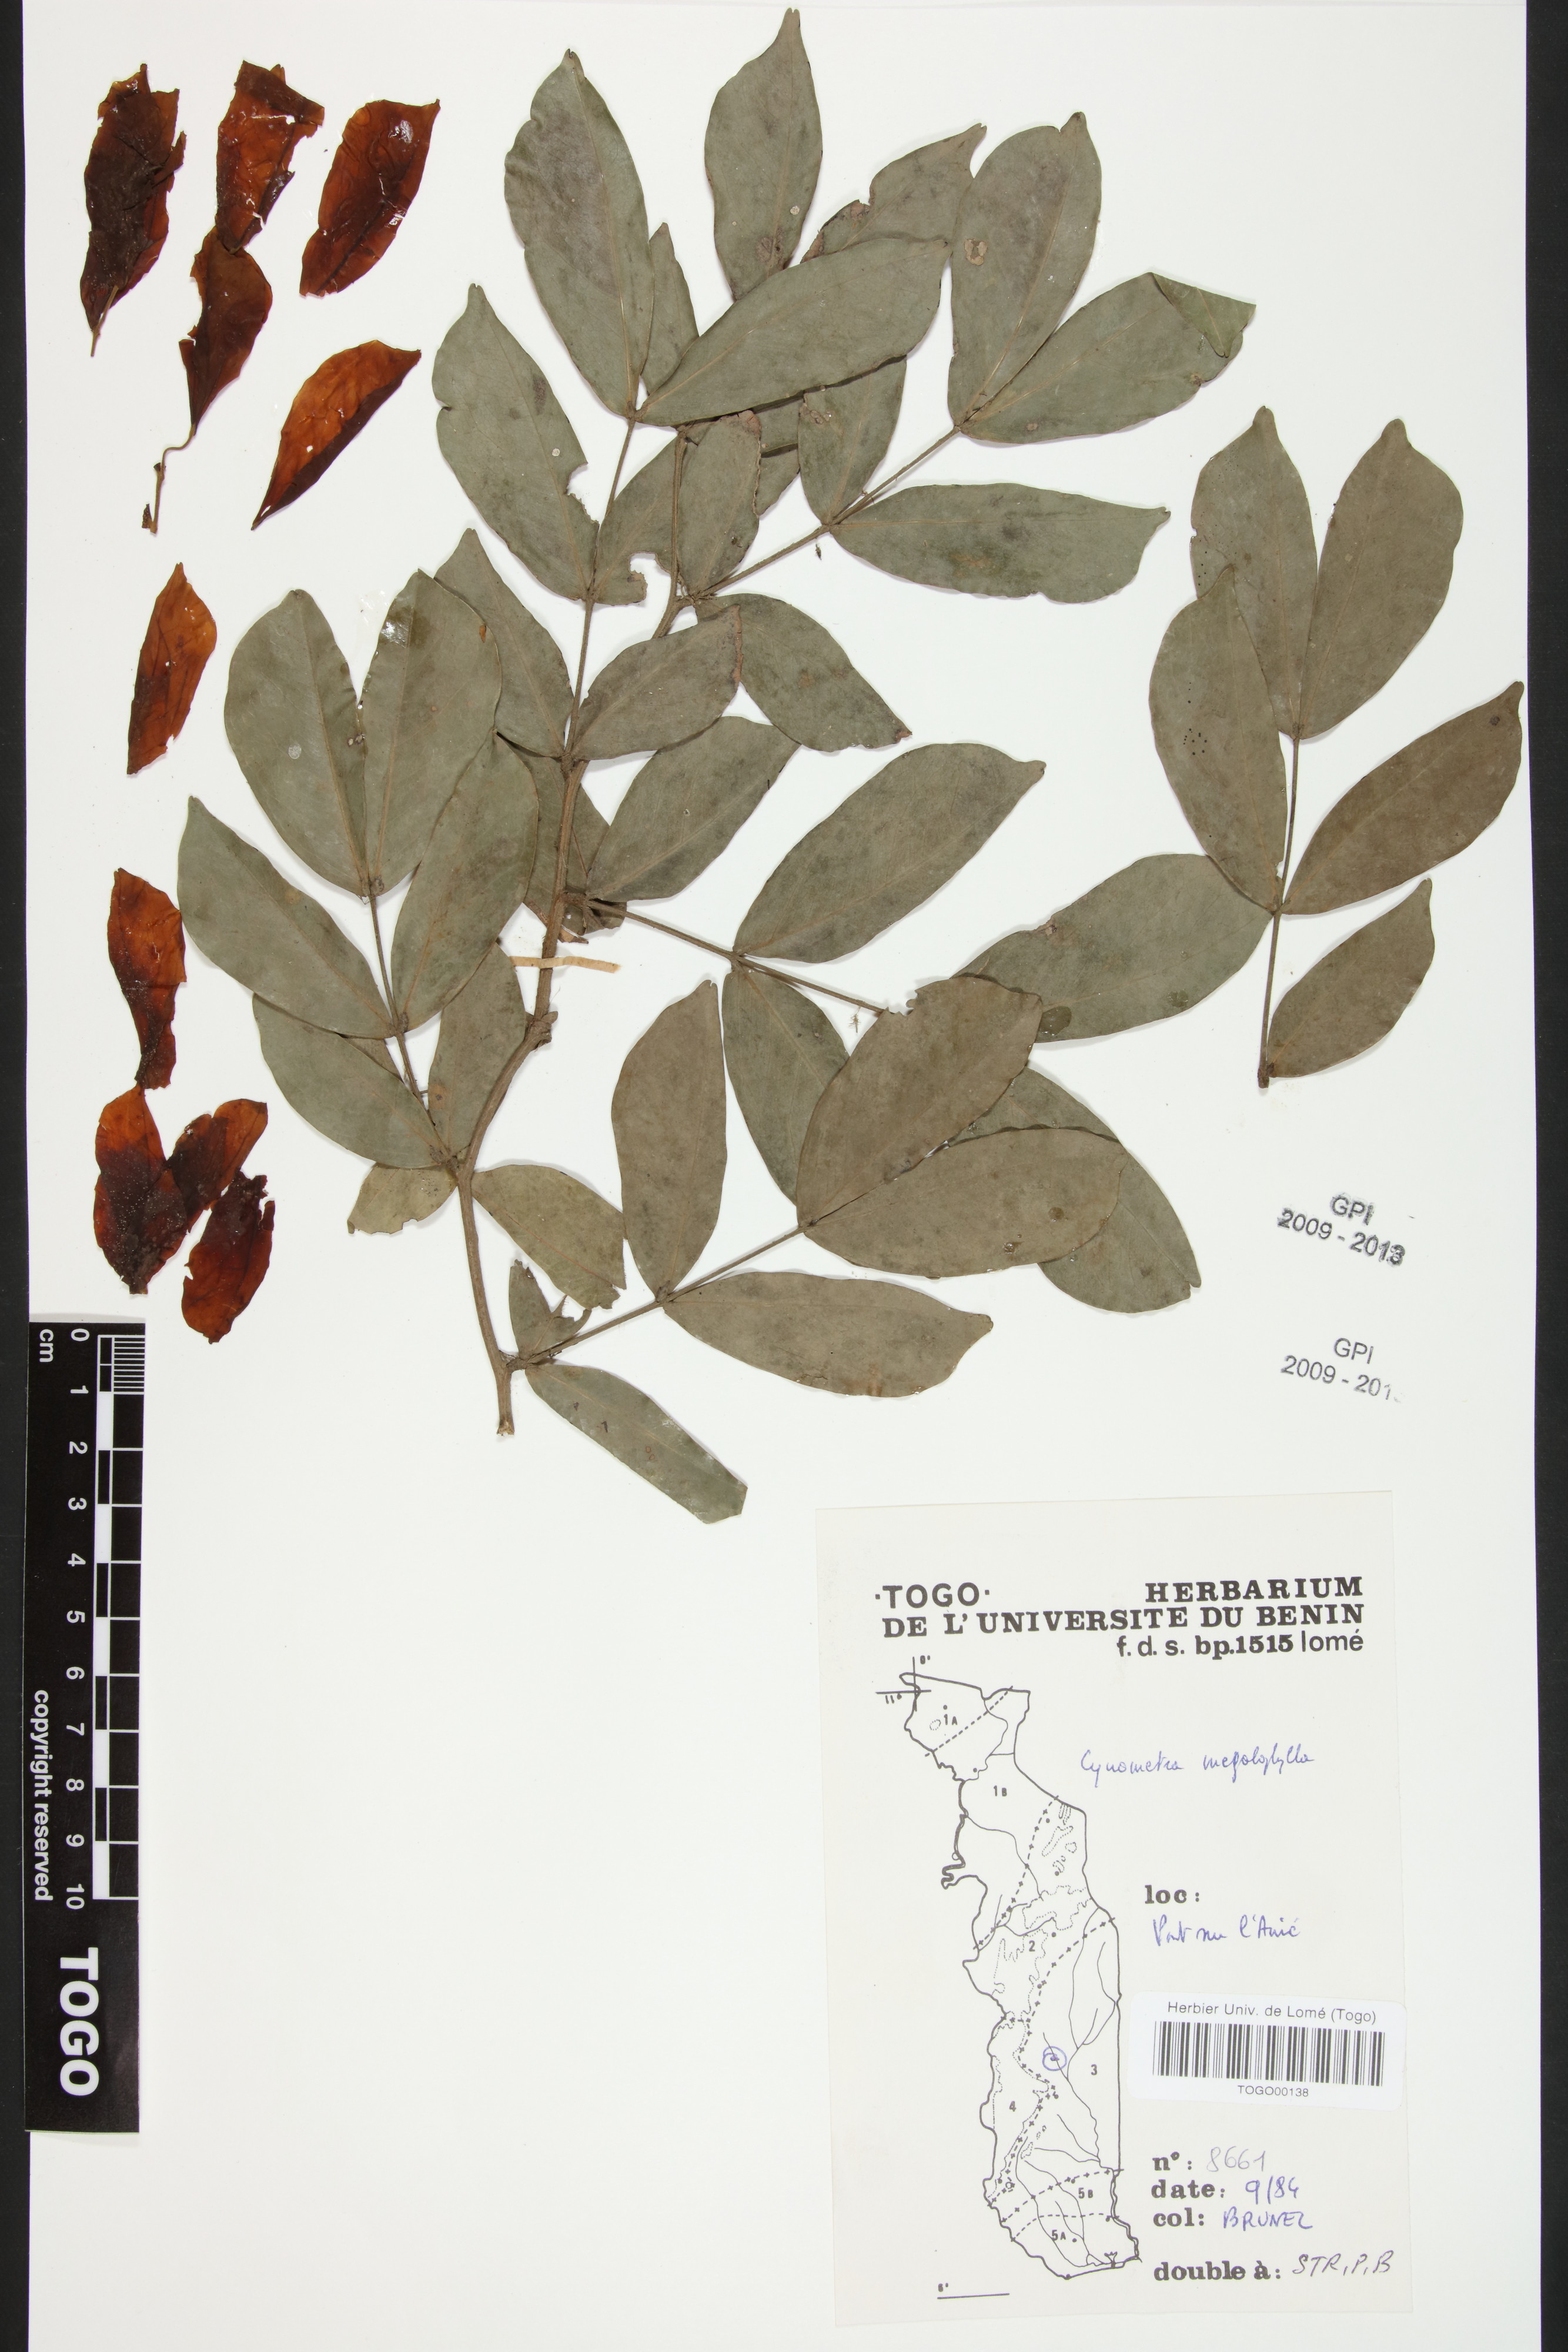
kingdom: Plantae
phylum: Tracheophyta
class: Magnoliopsida
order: Fabales
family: Fabaceae
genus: Cynometra
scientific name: Cynometra megalophylla
